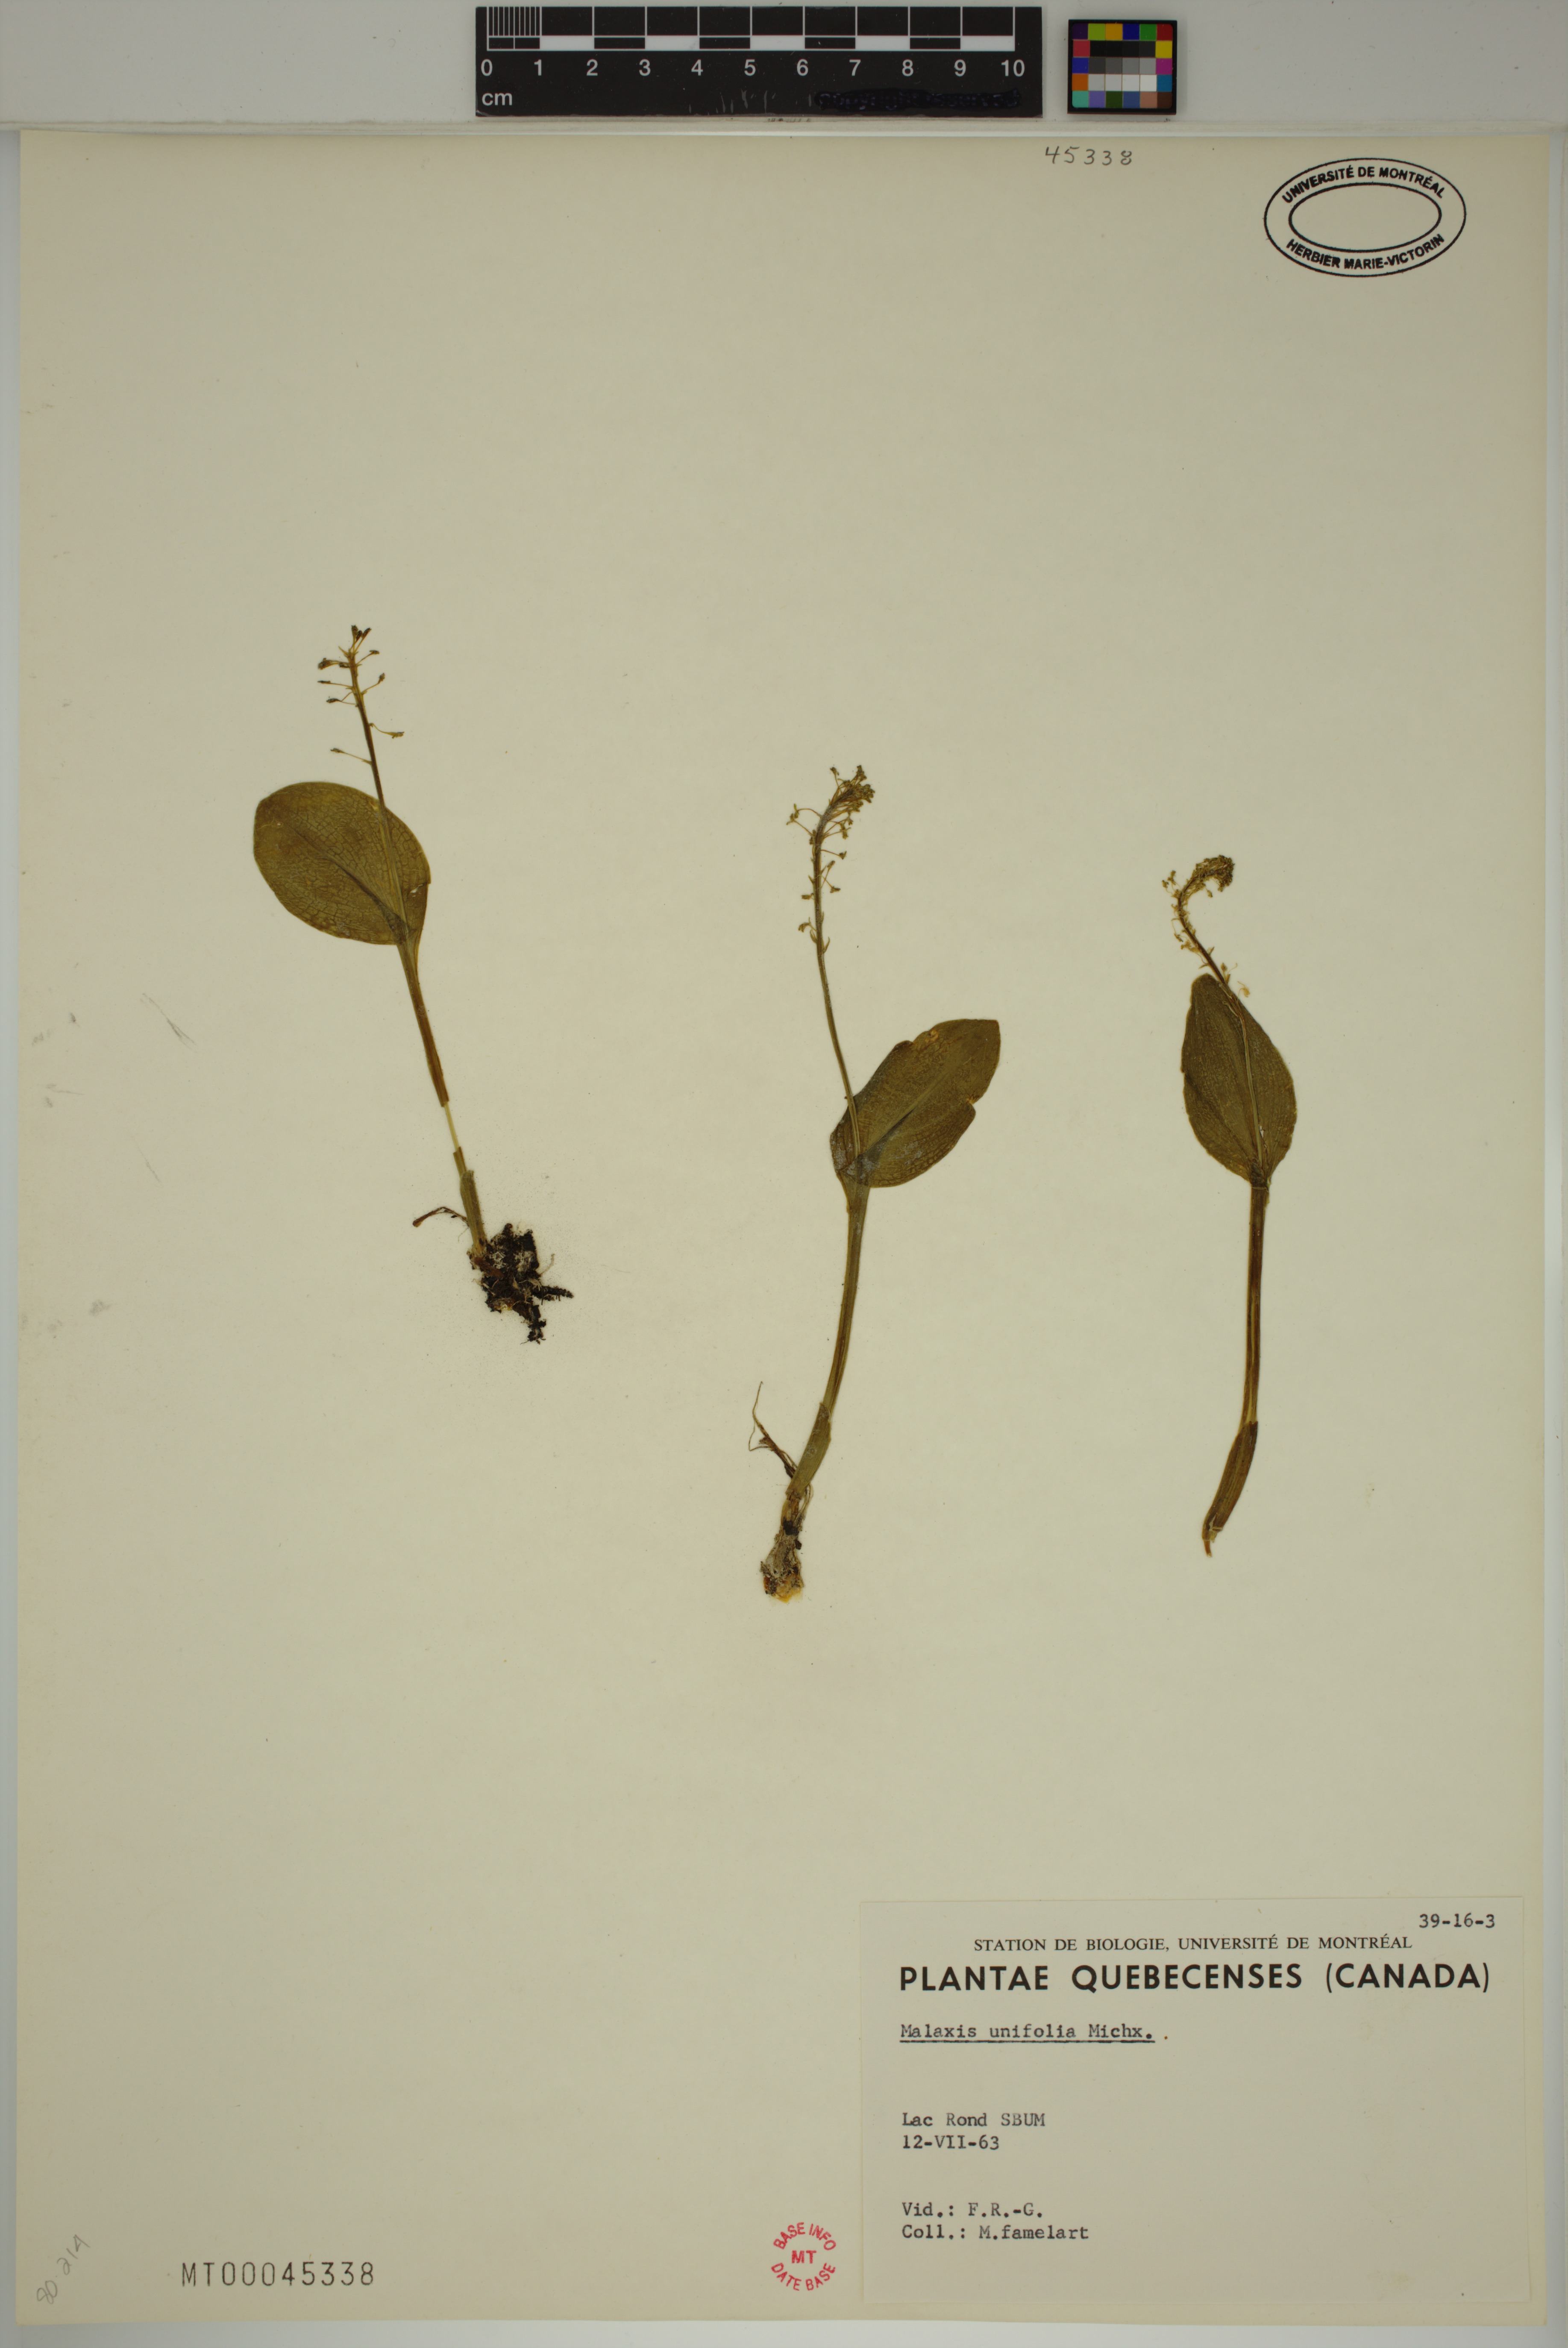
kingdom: Plantae
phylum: Tracheophyta
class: Liliopsida
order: Asparagales
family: Orchidaceae
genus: Malaxis
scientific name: Malaxis unifolia
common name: Green adder's-mouth
